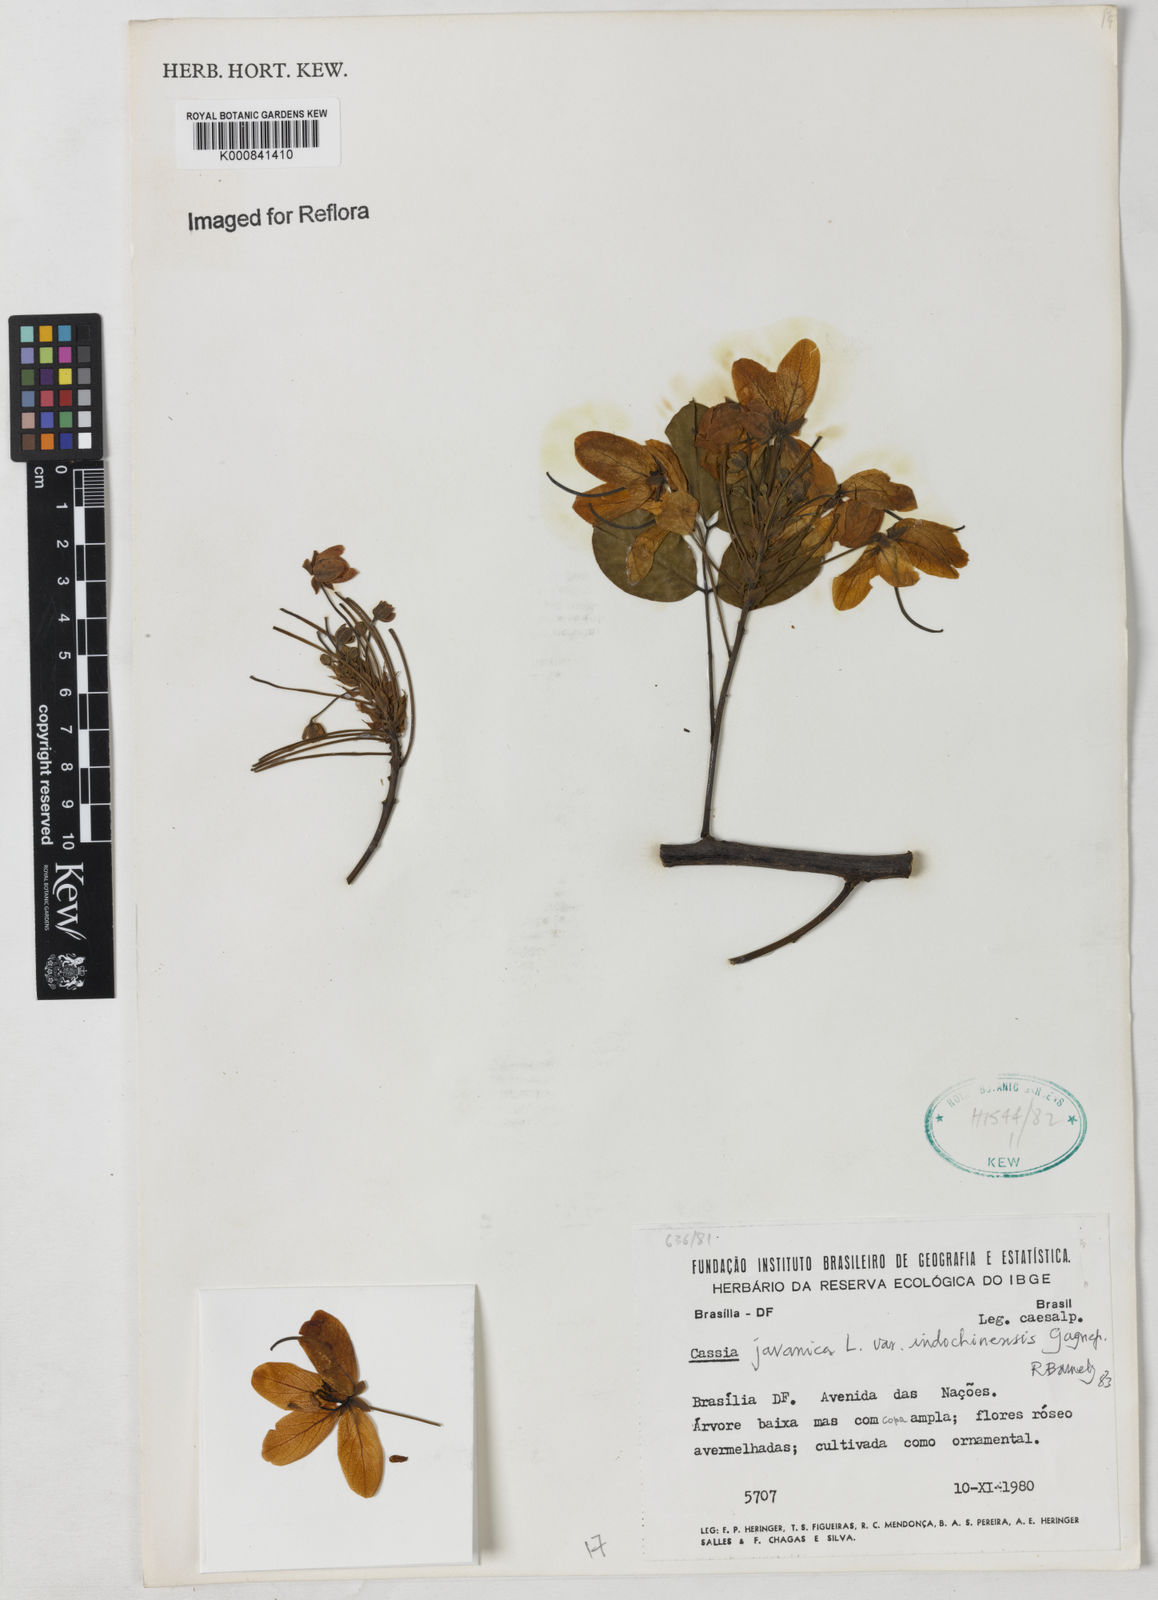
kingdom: Plantae
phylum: Tracheophyta
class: Magnoliopsida
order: Fabales
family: Fabaceae
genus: Cassia
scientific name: Cassia javanica
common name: Apple blossom
